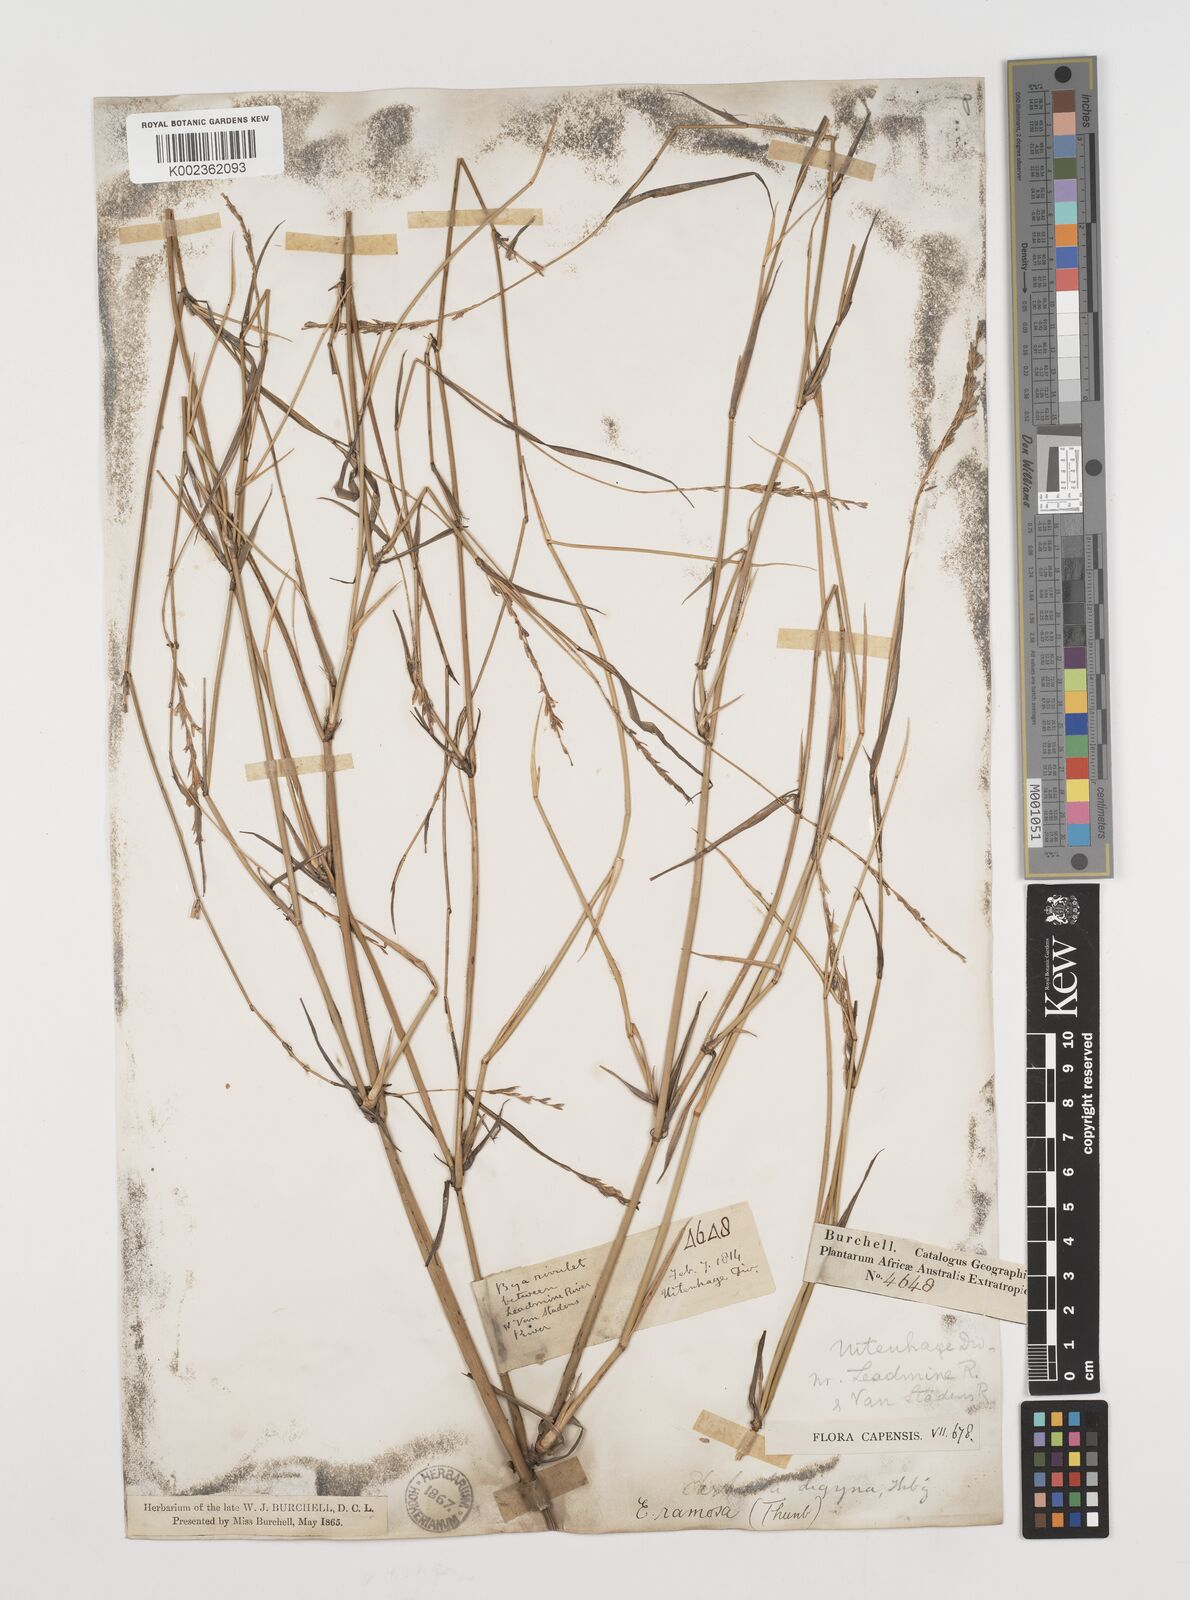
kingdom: Plantae
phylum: Tracheophyta
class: Liliopsida
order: Poales
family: Poaceae
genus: Ehrharta
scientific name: Ehrharta digyna
